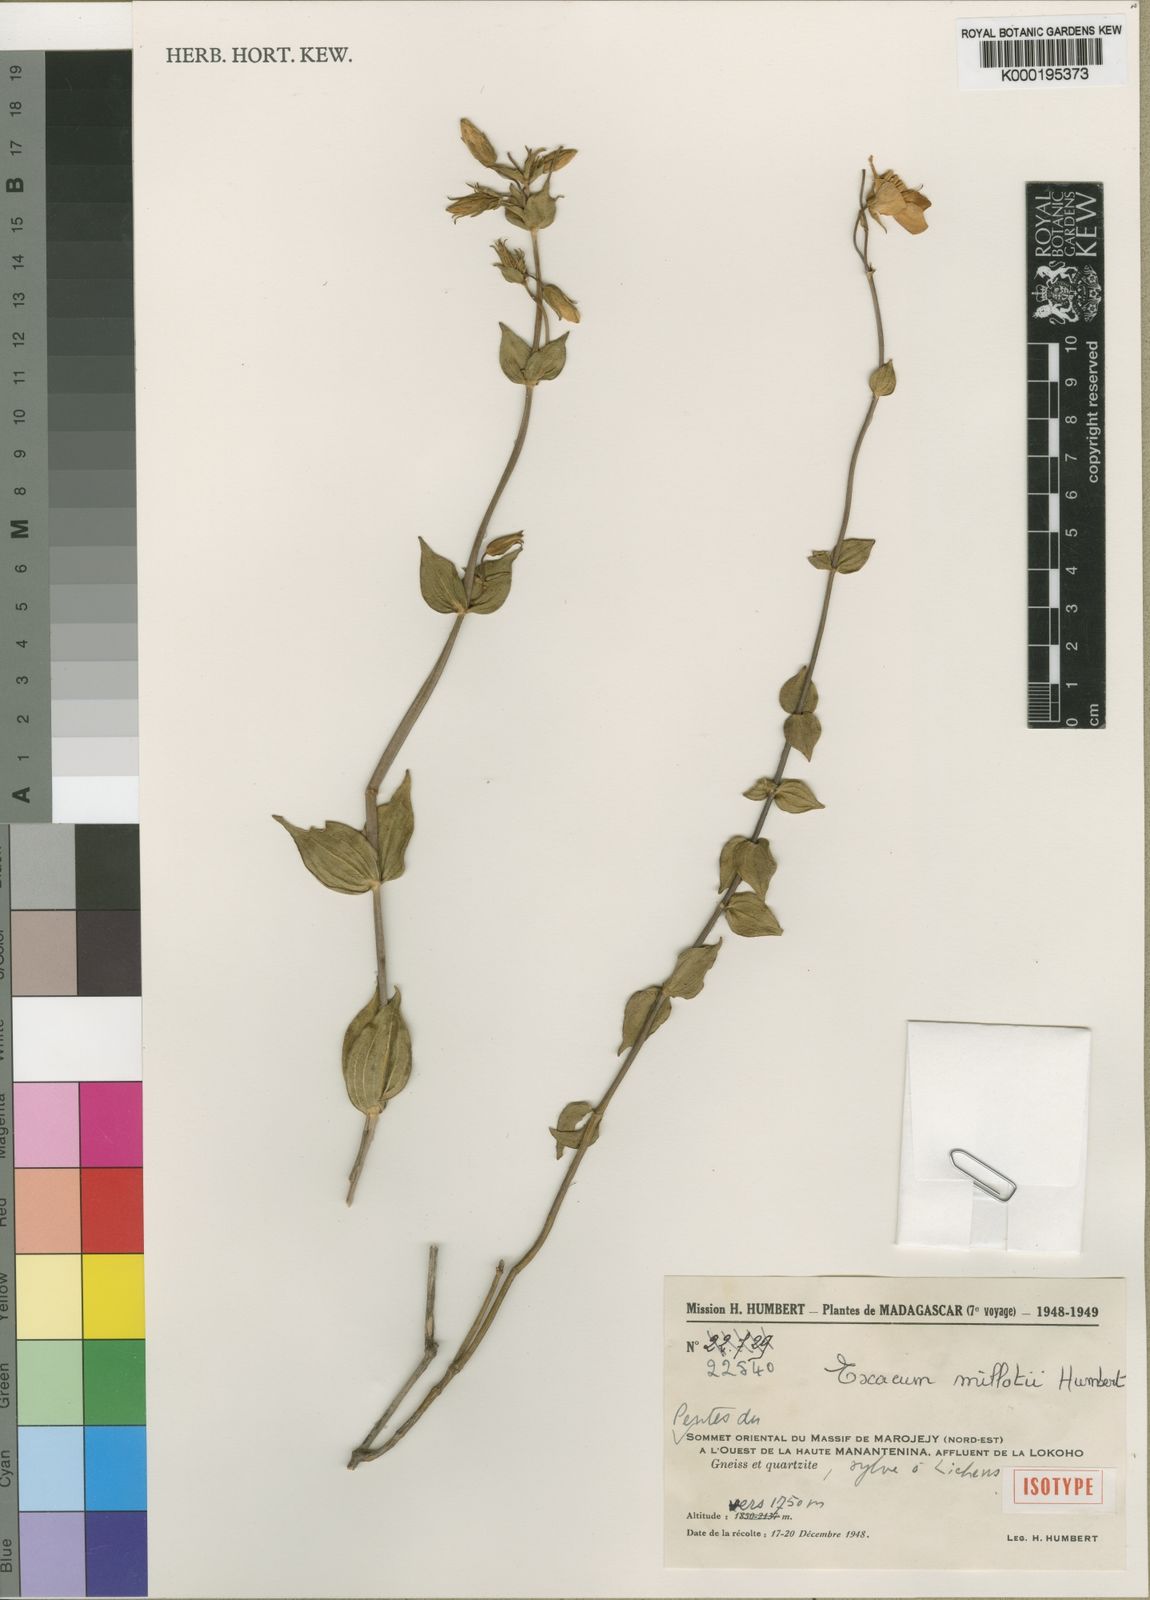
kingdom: Plantae
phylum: Tracheophyta
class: Magnoliopsida
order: Gentianales
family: Gentianaceae
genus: Exacum
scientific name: Exacum millotii
